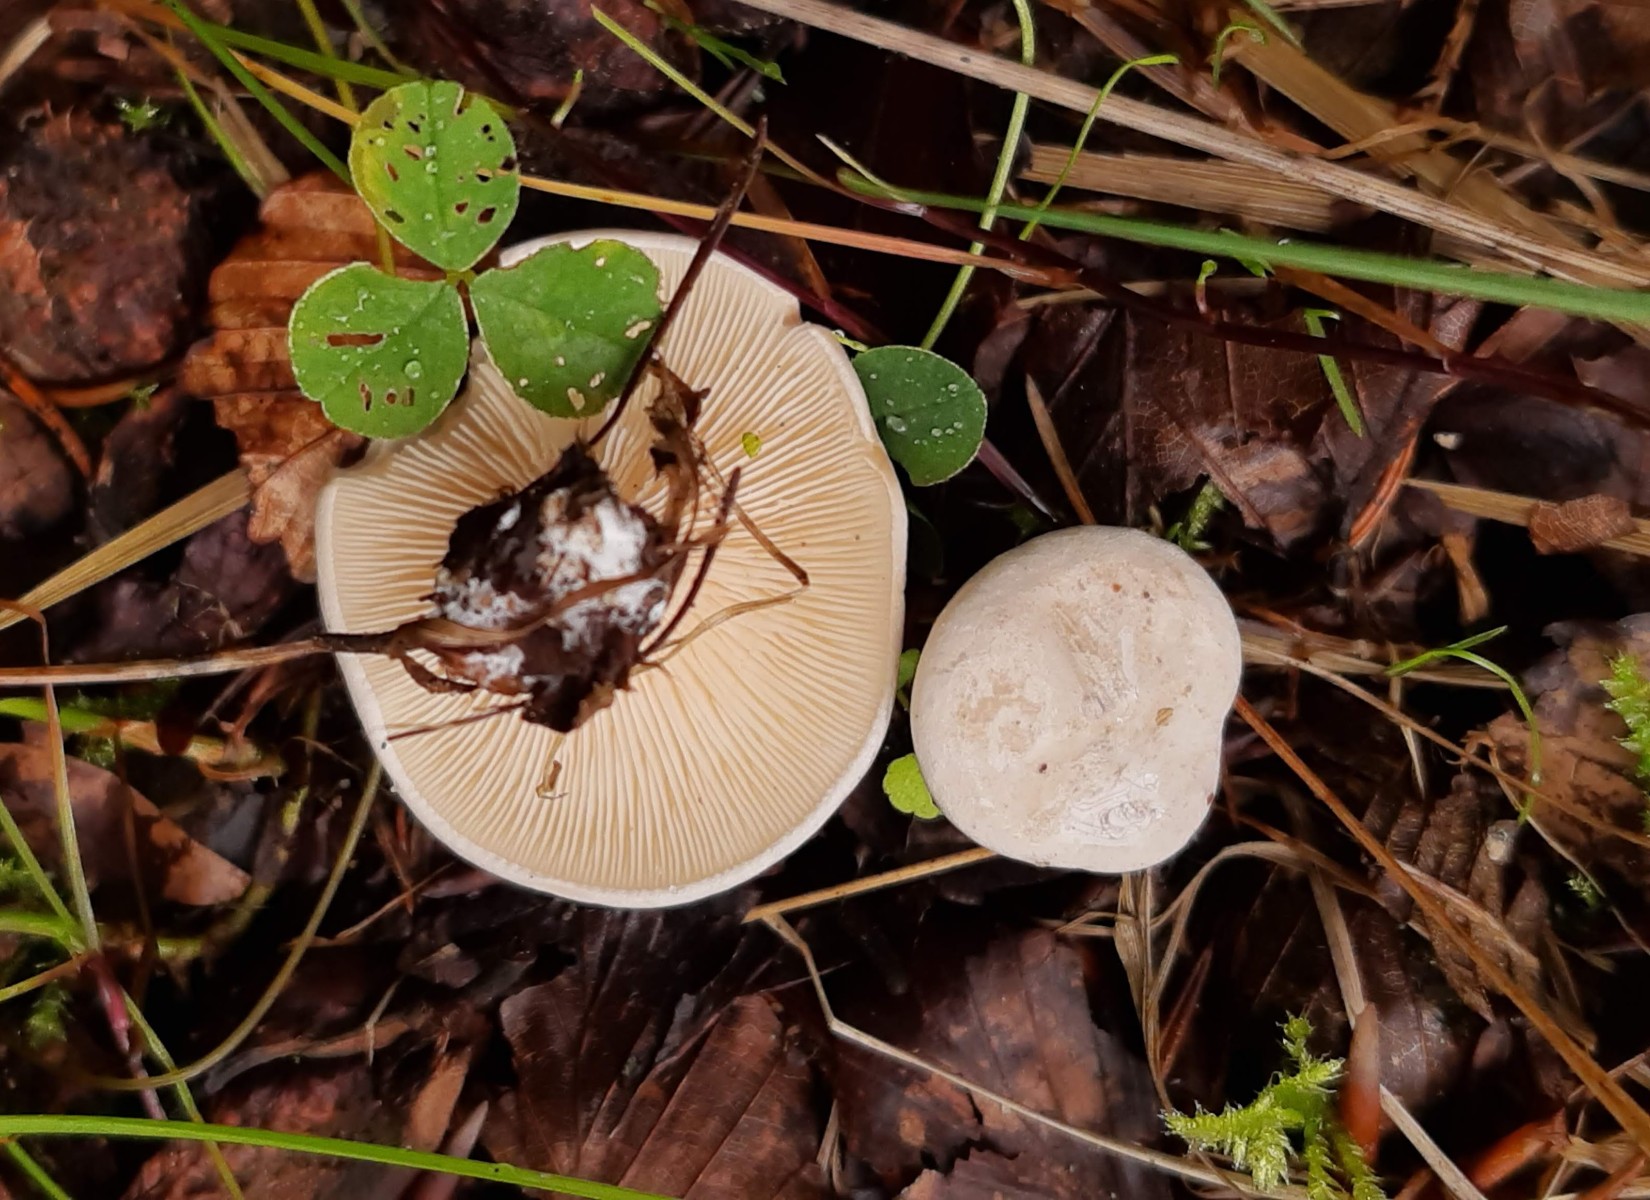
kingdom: Fungi
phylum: Basidiomycota
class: Agaricomycetes
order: Agaricales
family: Entolomataceae
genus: Clitopilus
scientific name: Clitopilus prunulus
